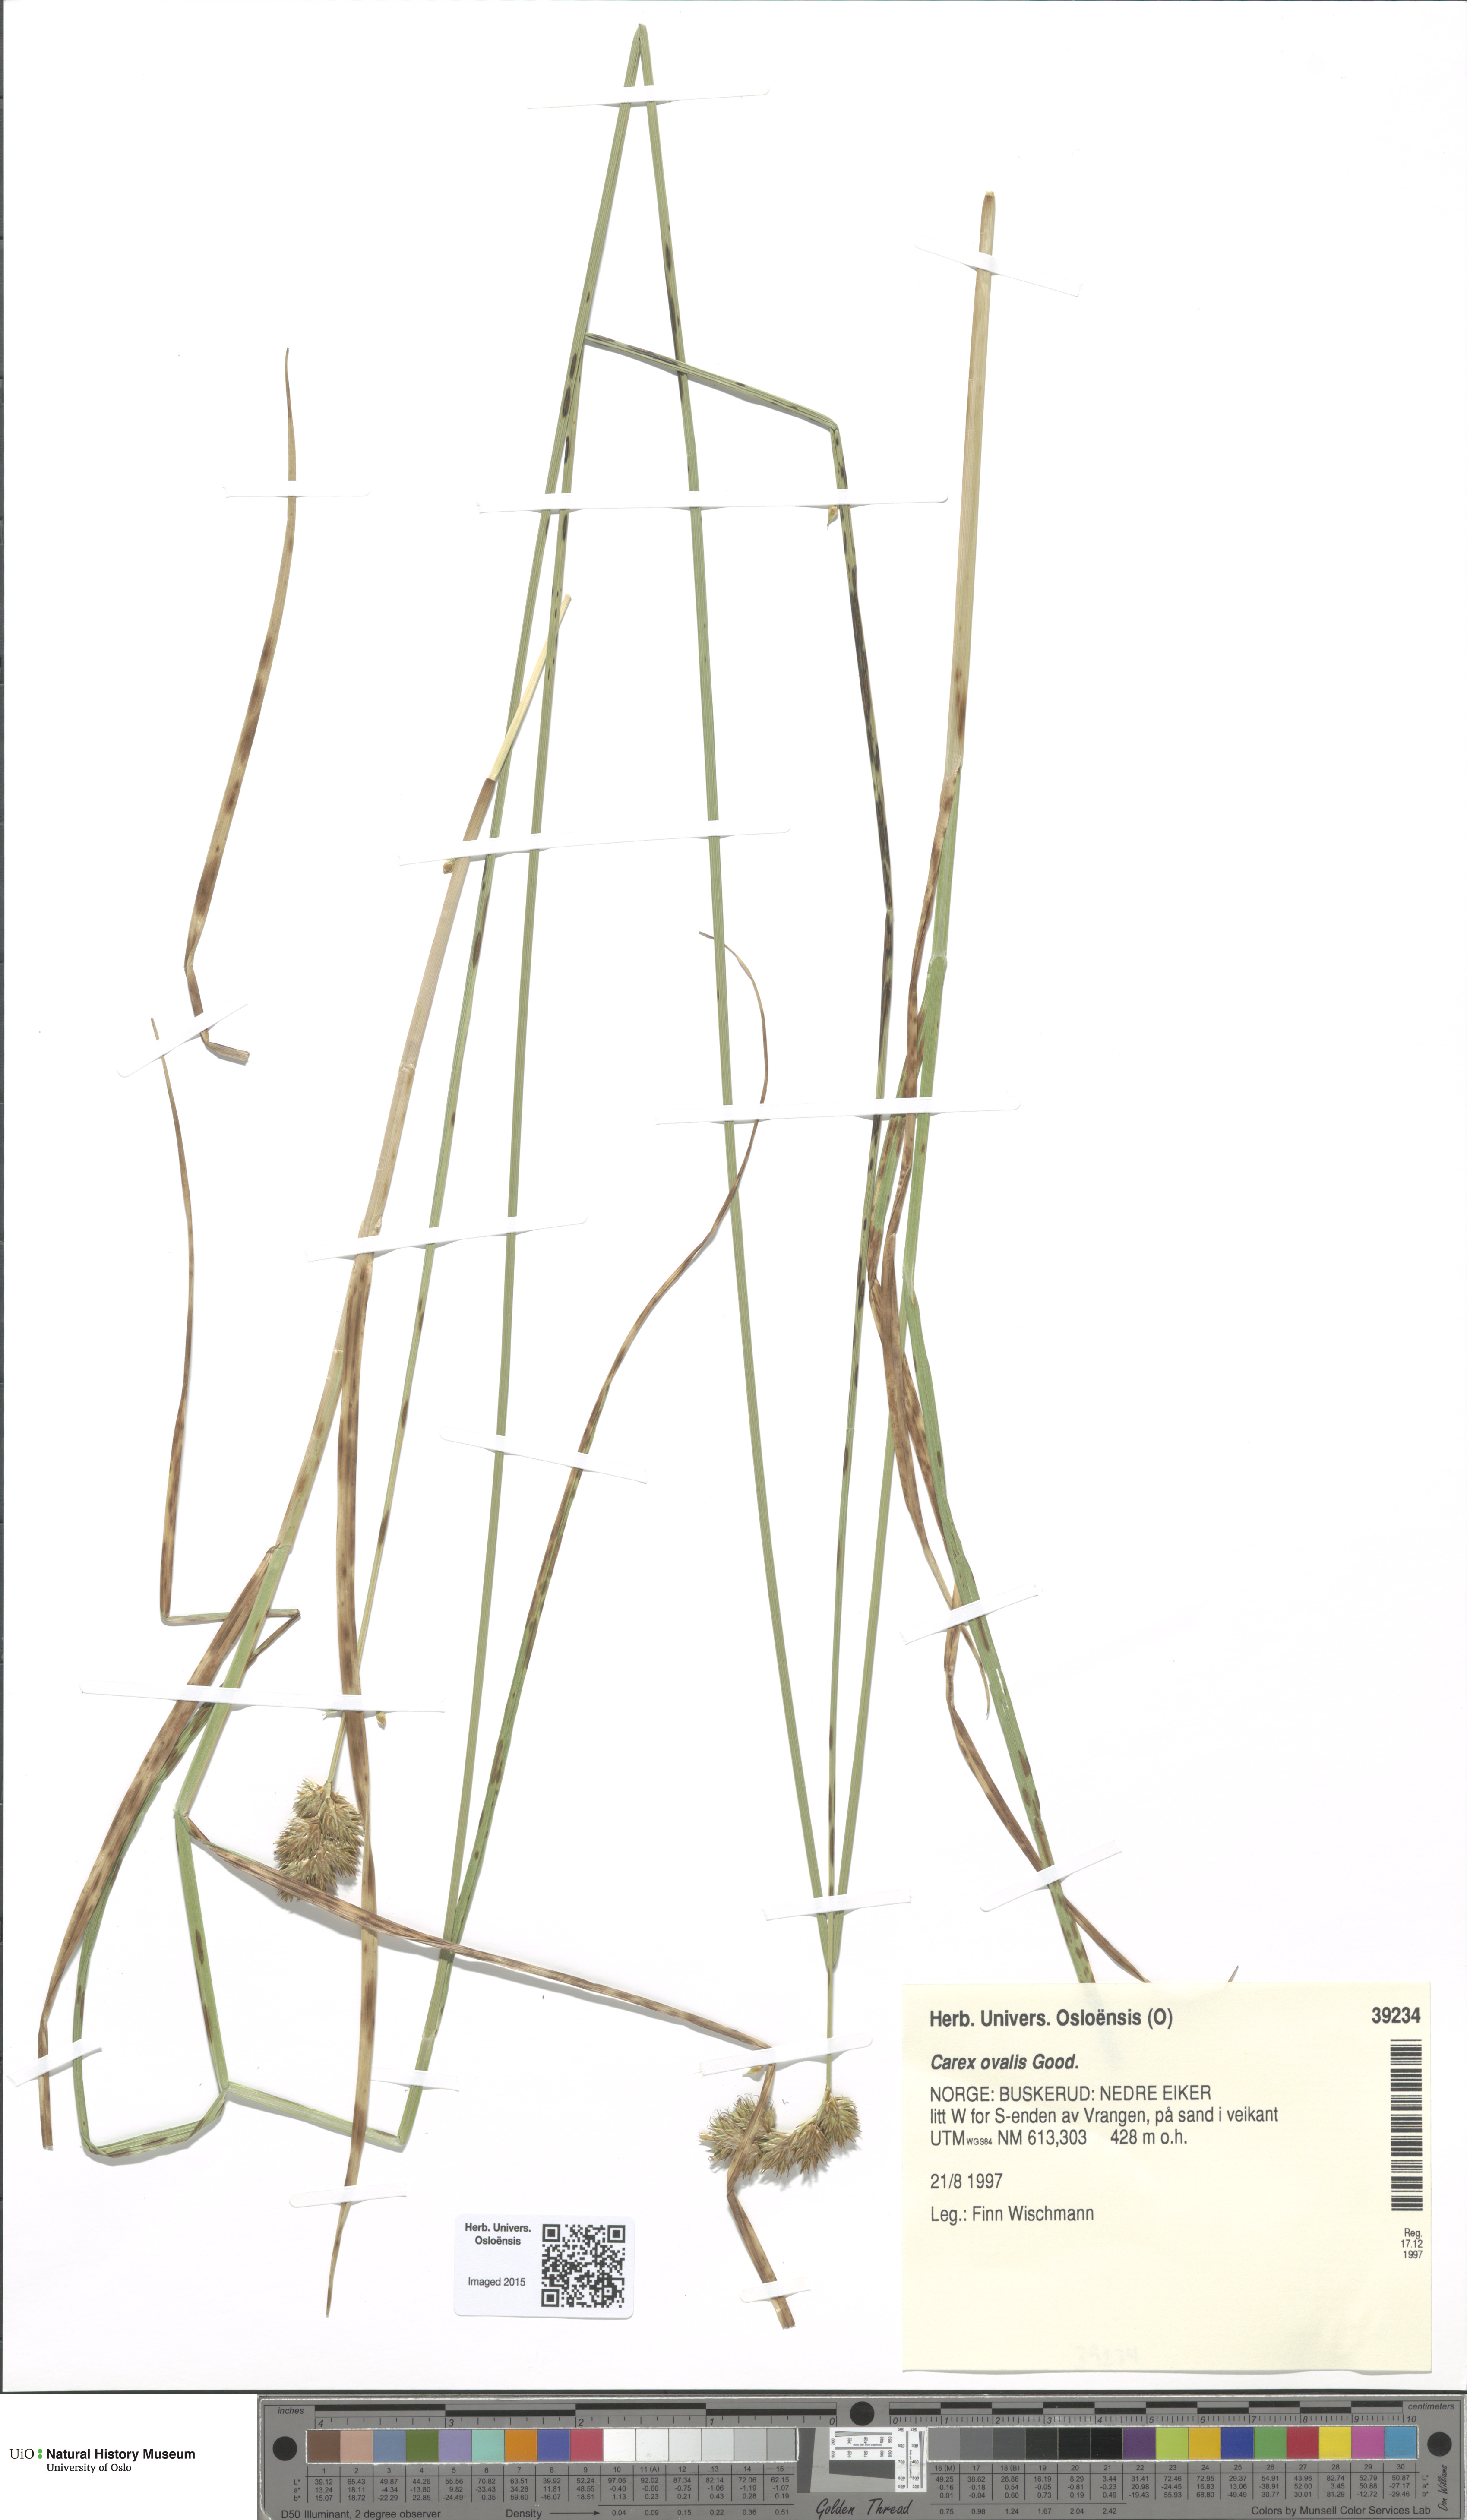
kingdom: Plantae
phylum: Tracheophyta
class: Liliopsida
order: Poales
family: Cyperaceae
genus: Carex
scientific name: Carex leporina
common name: Oval sedge
